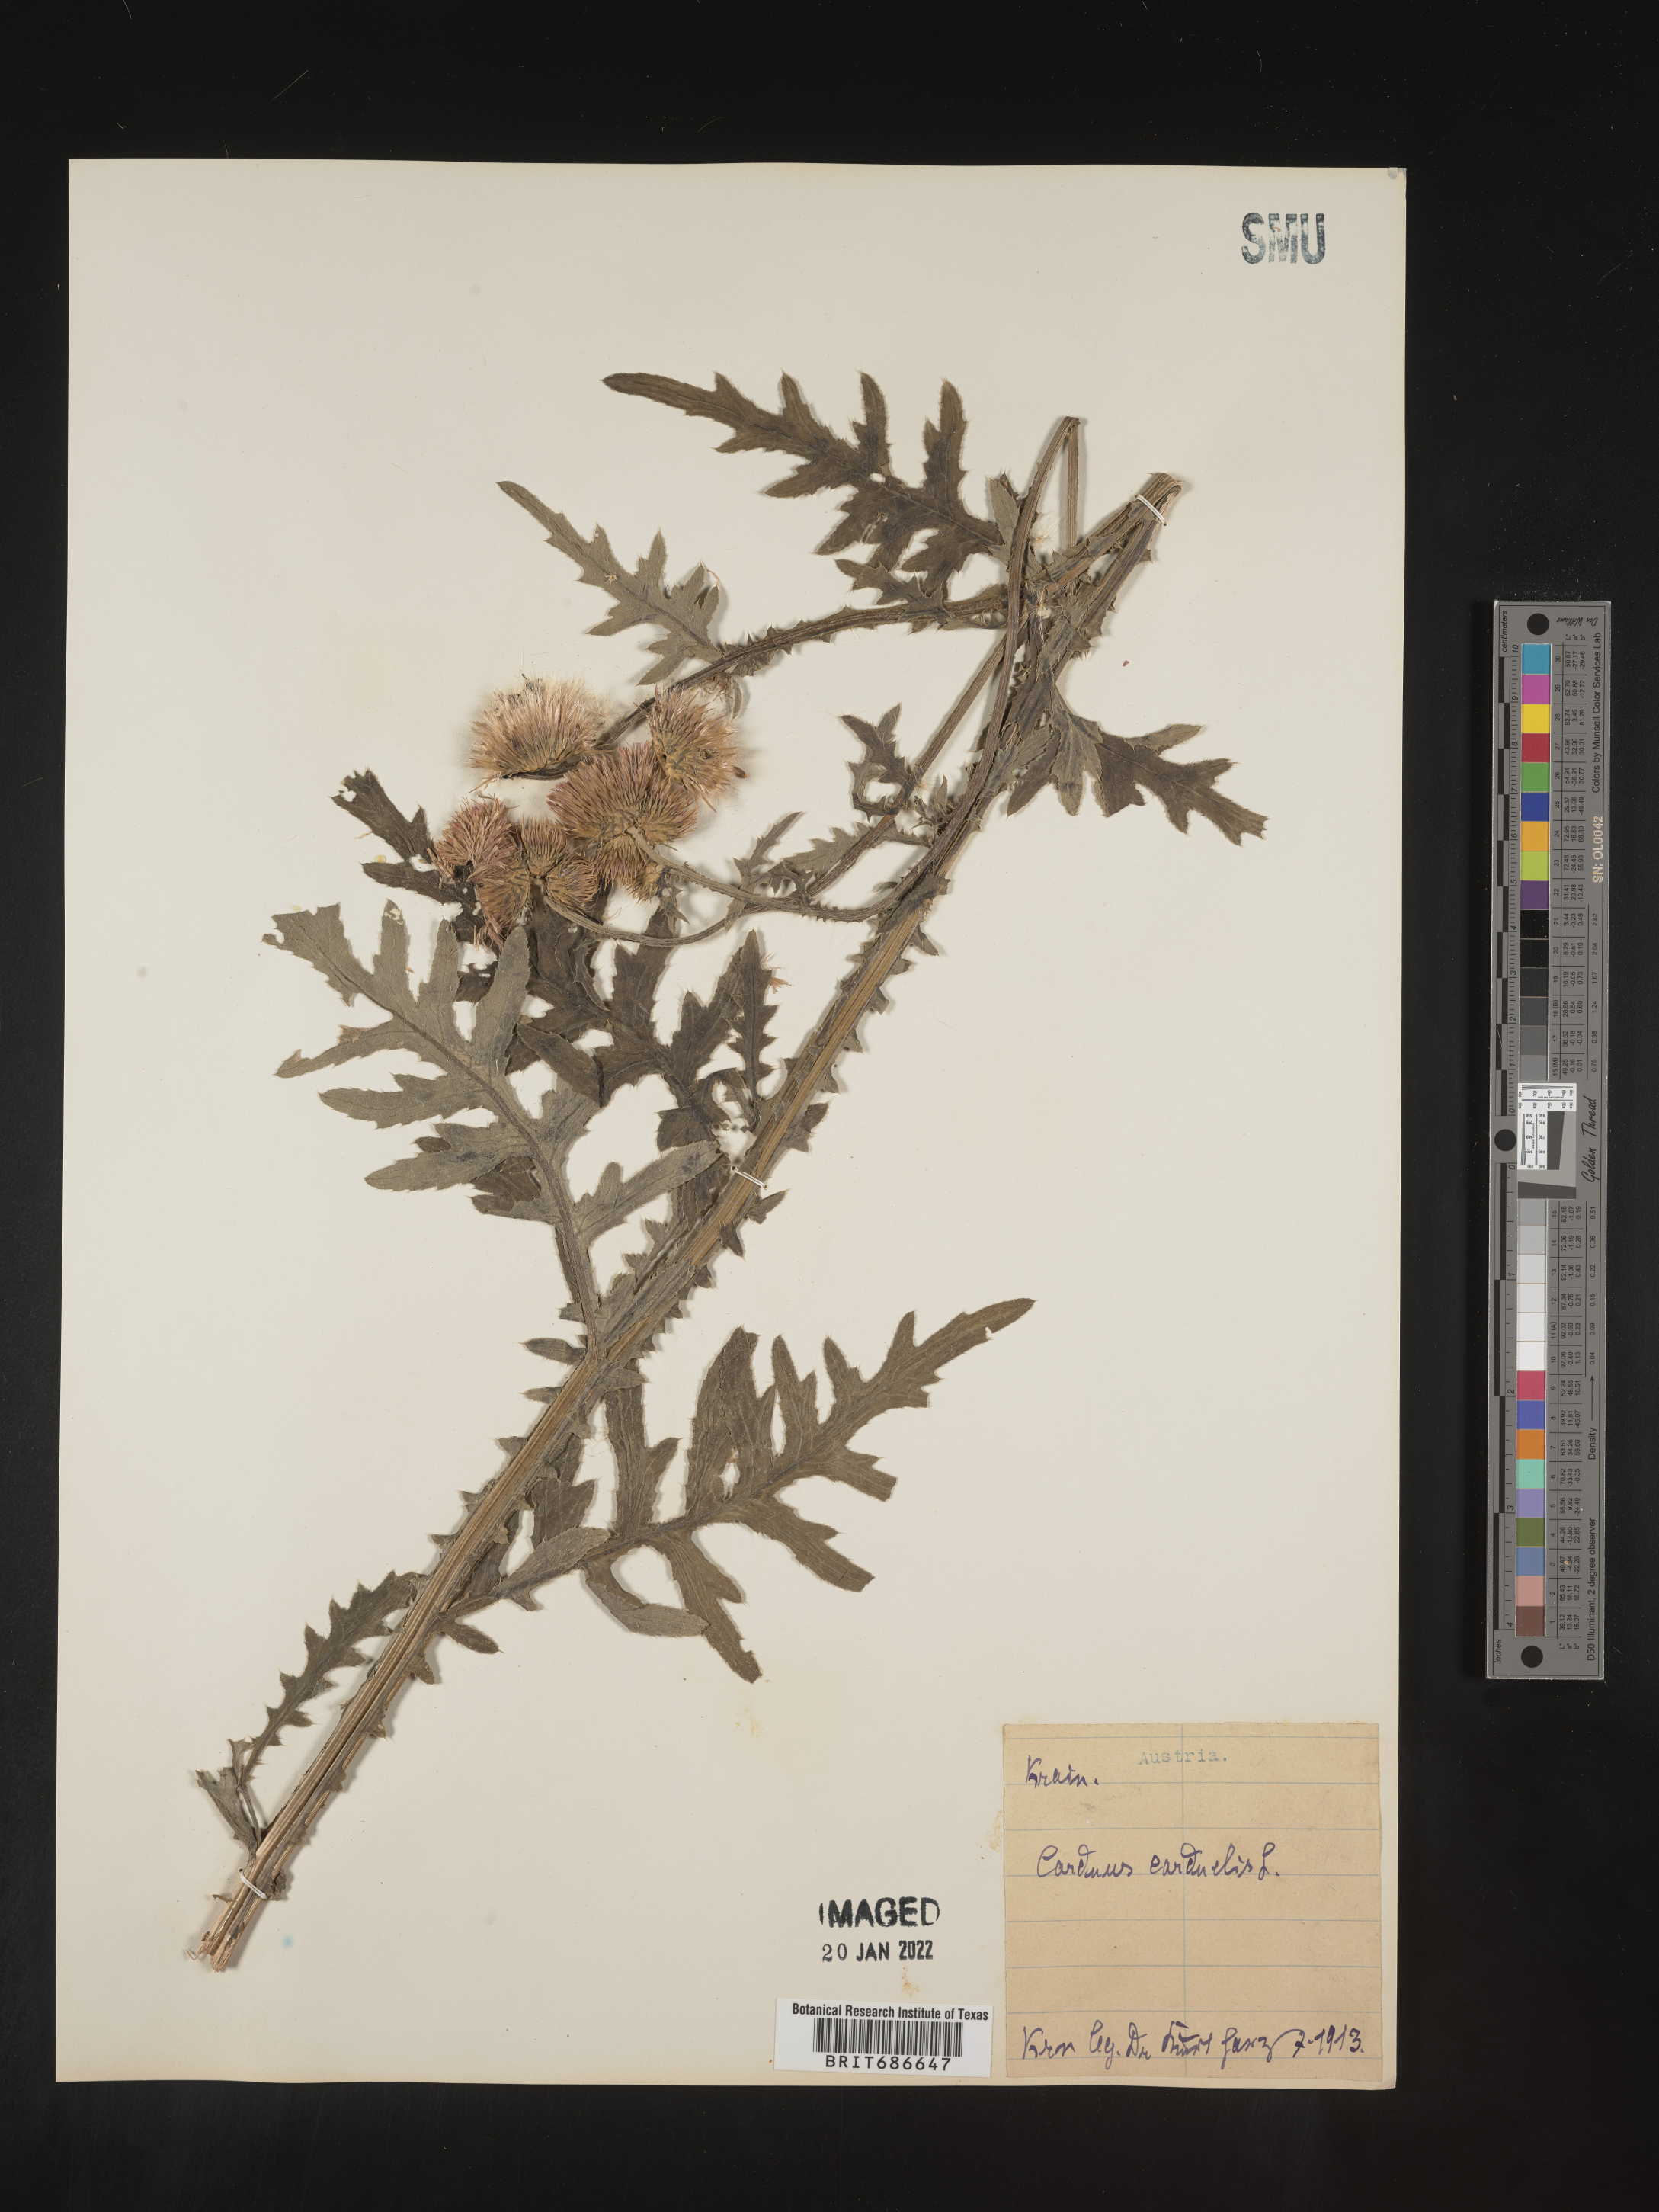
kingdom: Plantae
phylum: Tracheophyta
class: Magnoliopsida
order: Asterales
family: Asteraceae
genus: Carduus
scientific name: Carduus
